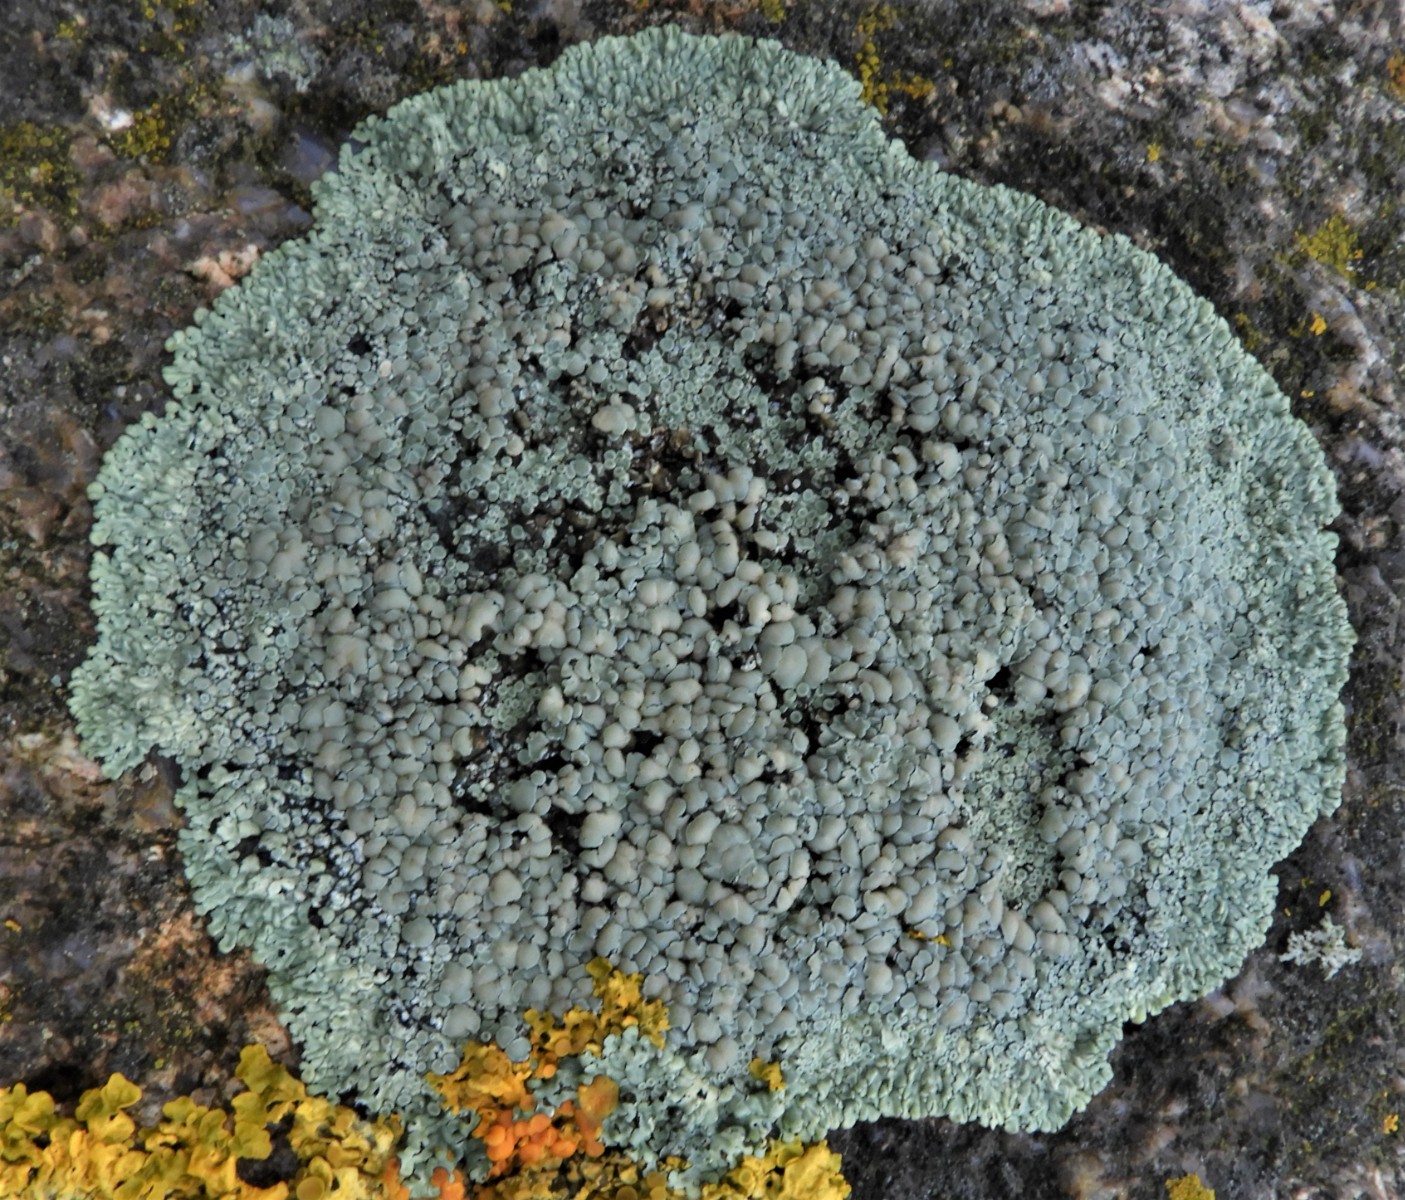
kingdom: Fungi
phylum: Ascomycota
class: Lecanoromycetes
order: Lecanorales
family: Lecanoraceae
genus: Protoparmeliopsis
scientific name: Protoparmeliopsis muralis
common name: randfliget kantskivelav
